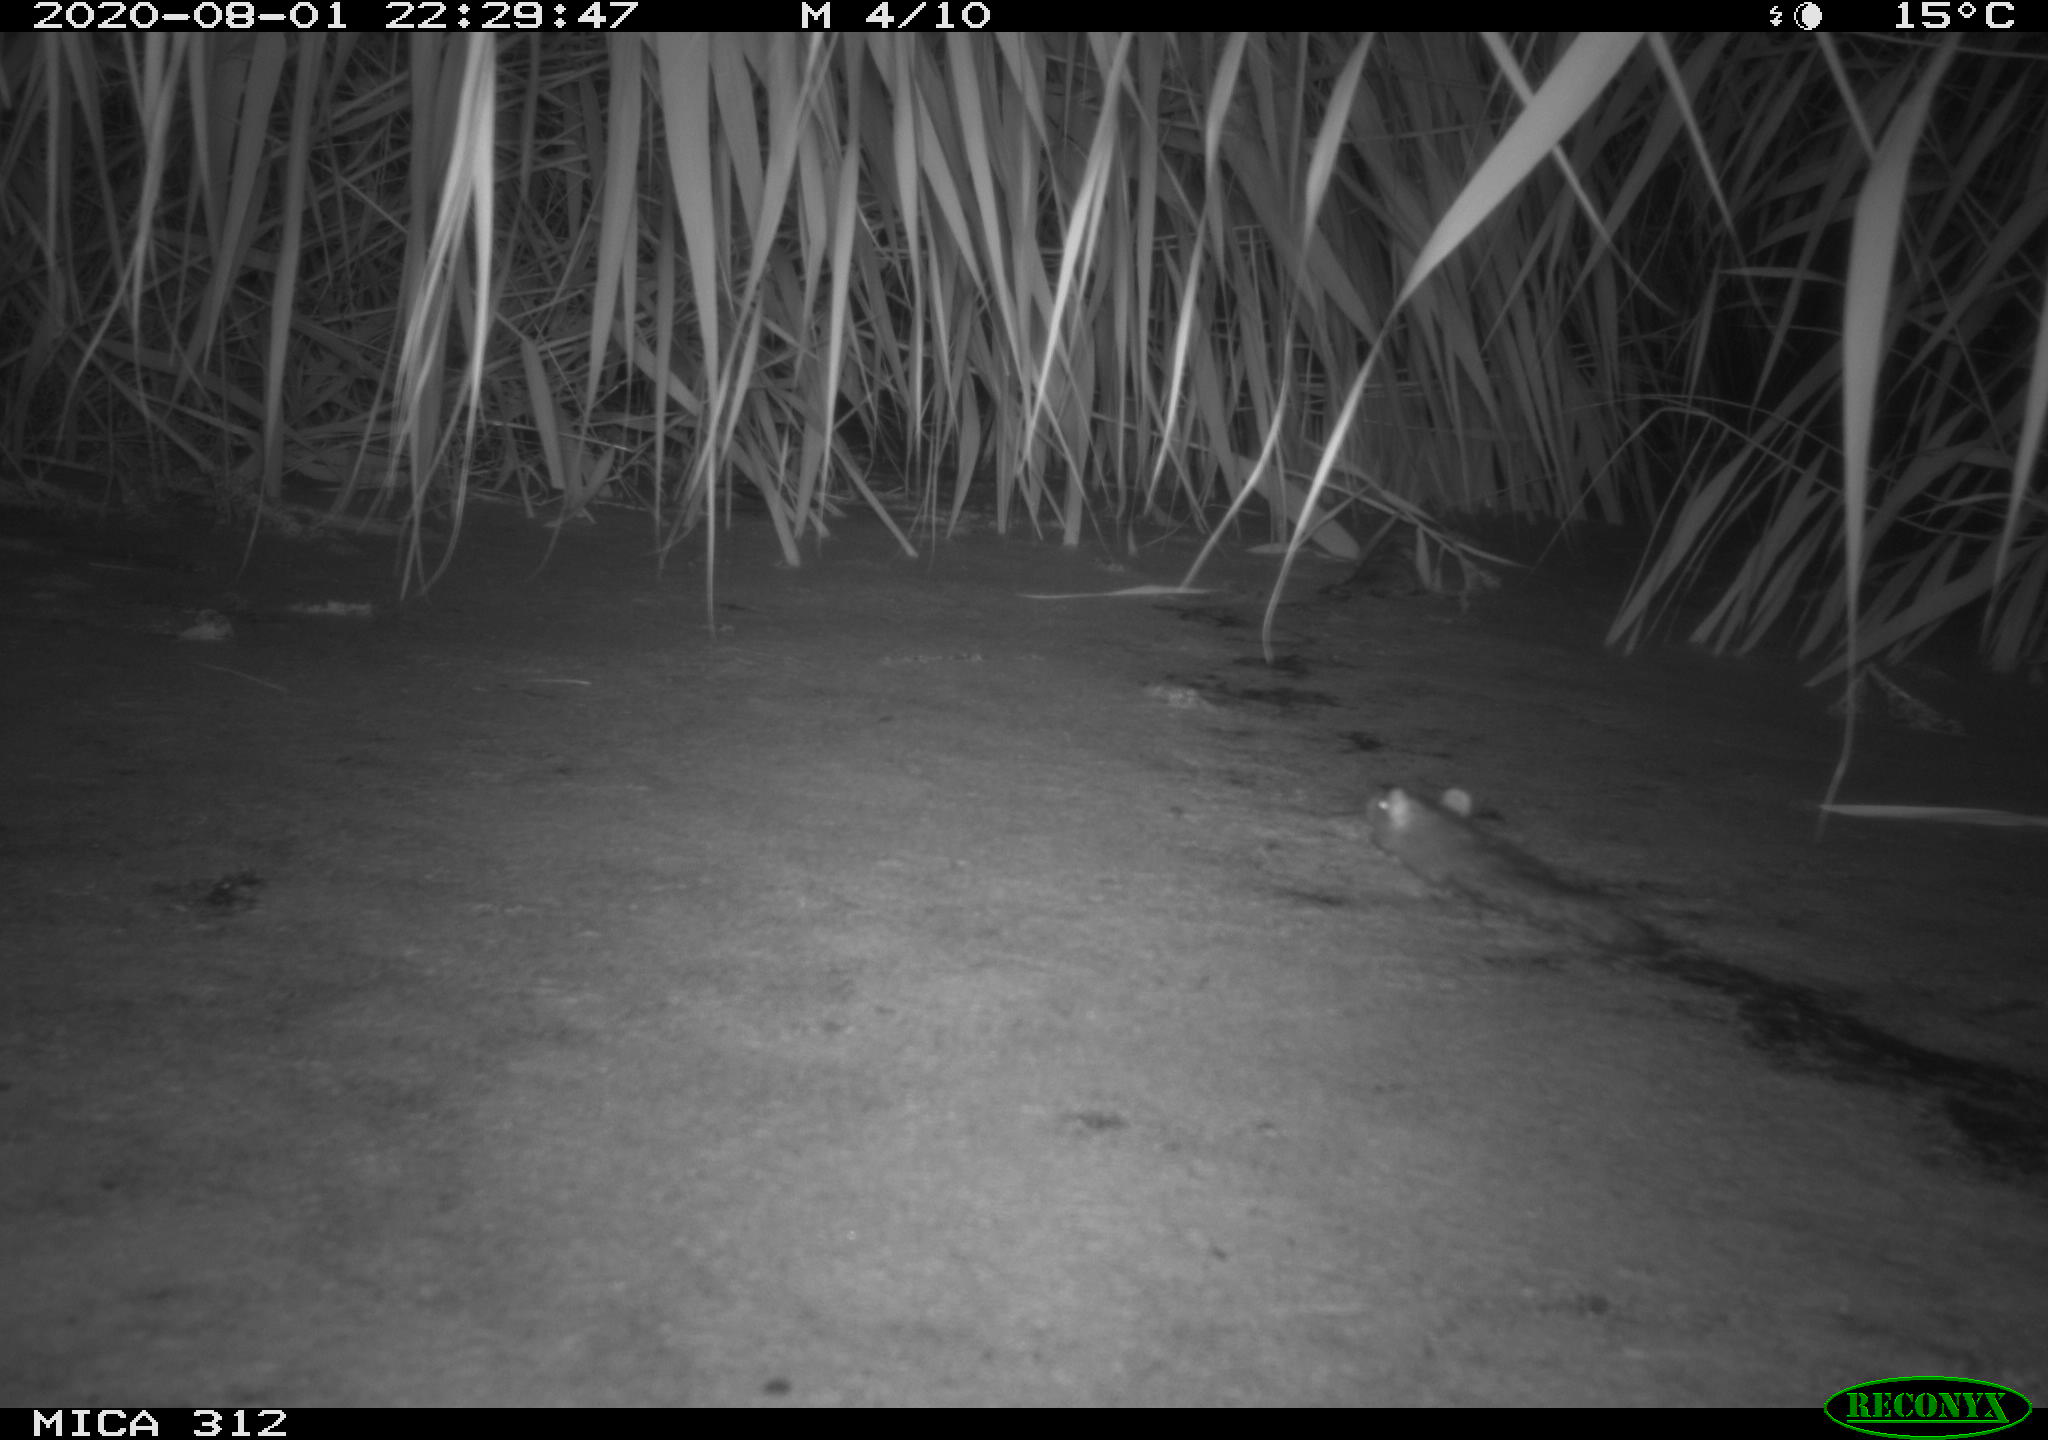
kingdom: Animalia
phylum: Chordata
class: Mammalia
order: Rodentia
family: Muridae
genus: Rattus
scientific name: Rattus norvegicus
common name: Brown rat
